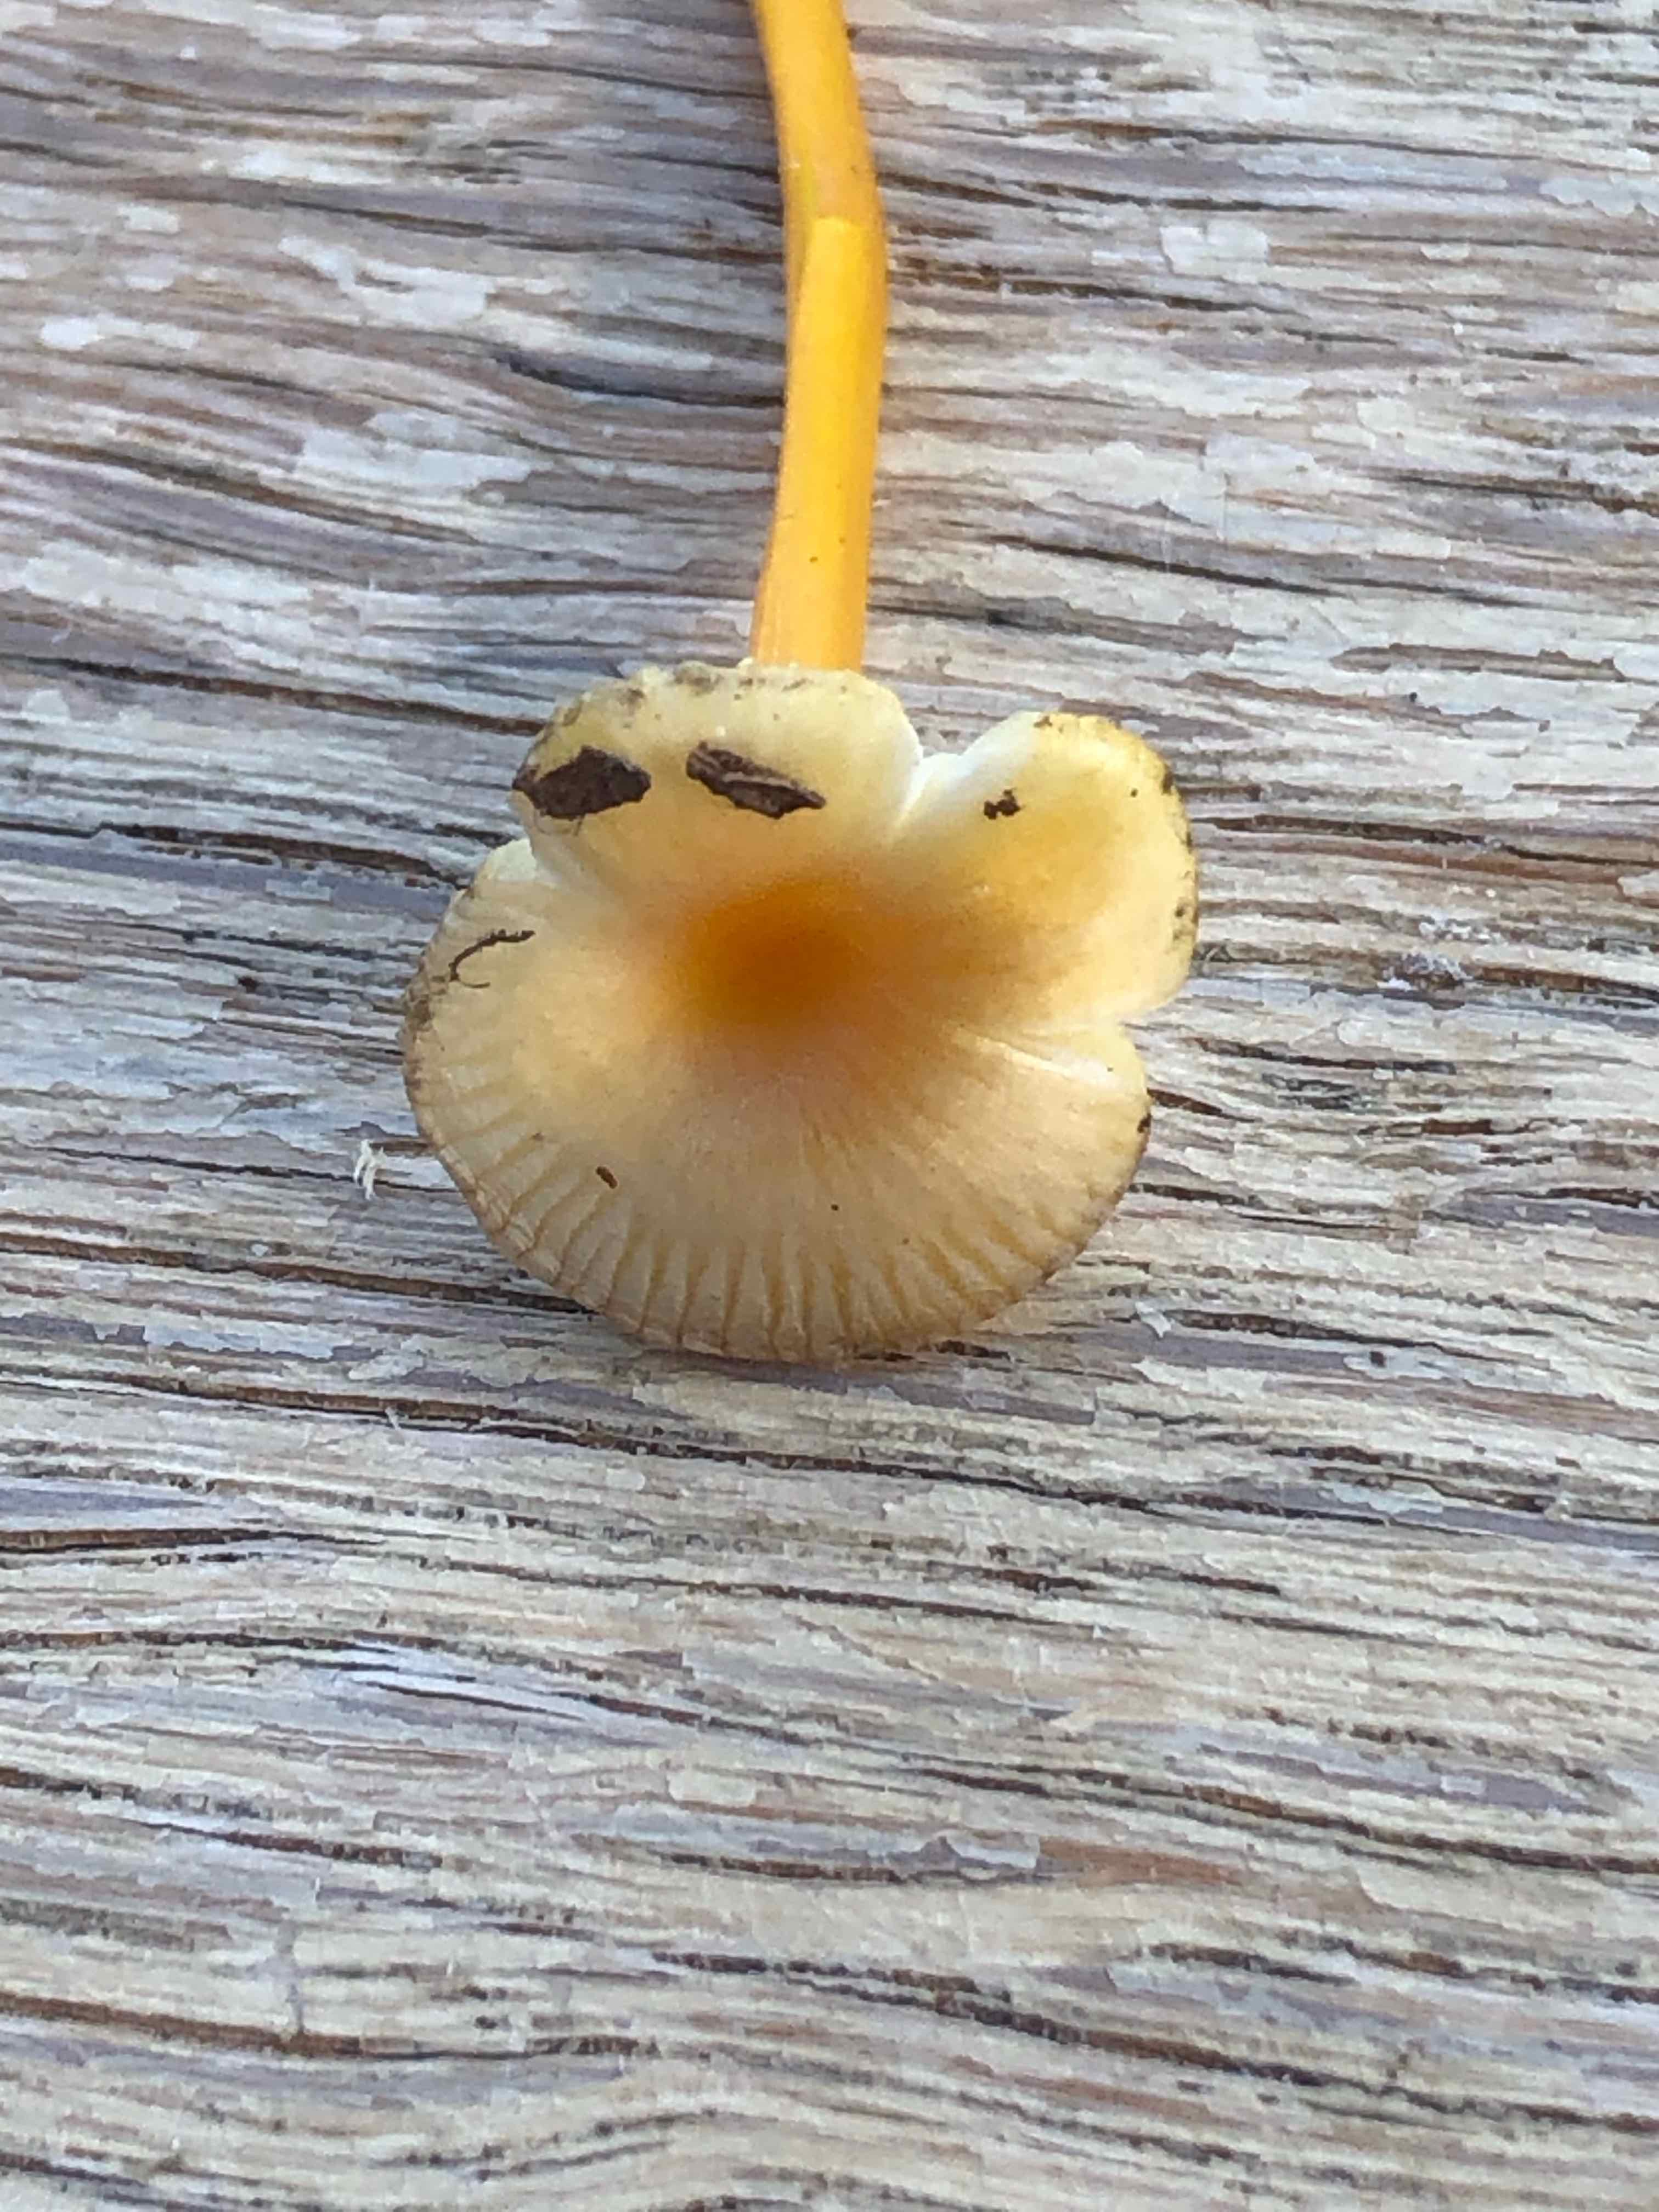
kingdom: Fungi
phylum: Basidiomycota
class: Agaricomycetes
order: Agaricales
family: Hygrophoraceae
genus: Hygrocybe
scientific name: Hygrocybe
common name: vokshat
